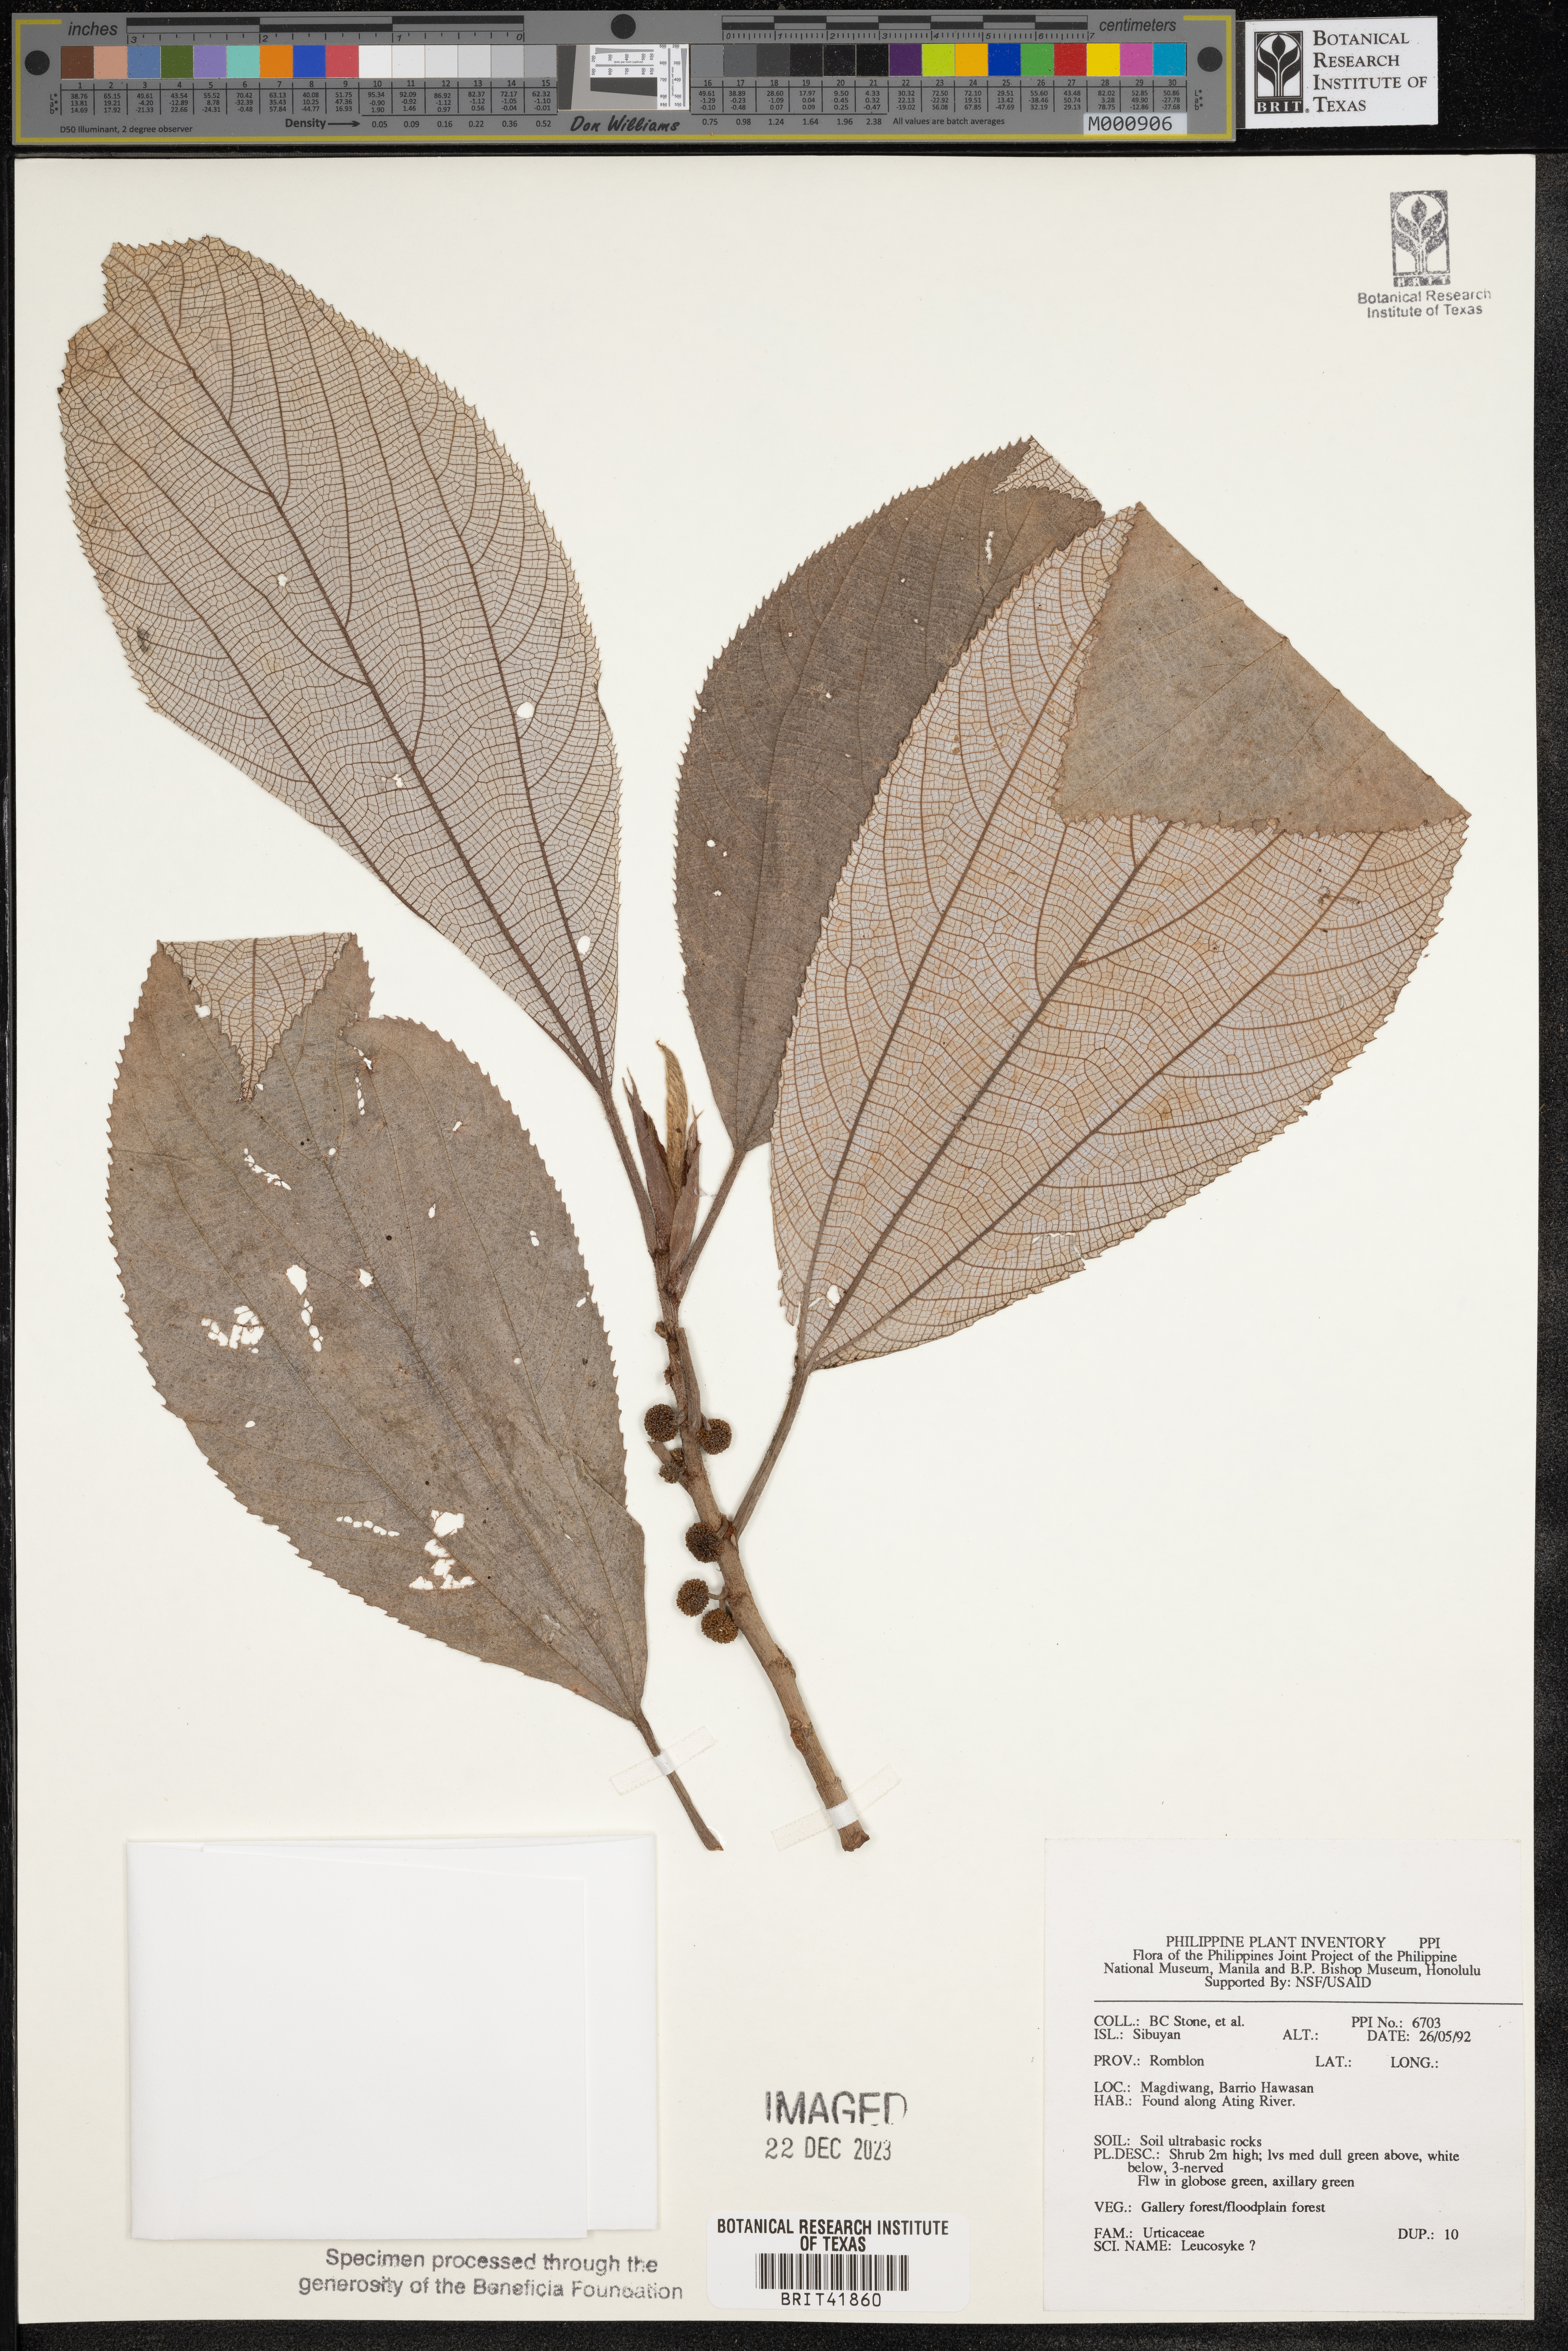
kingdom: Plantae
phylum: Tracheophyta
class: Magnoliopsida
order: Rosales
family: Urticaceae
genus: Leucosyke
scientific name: Leucosyke
